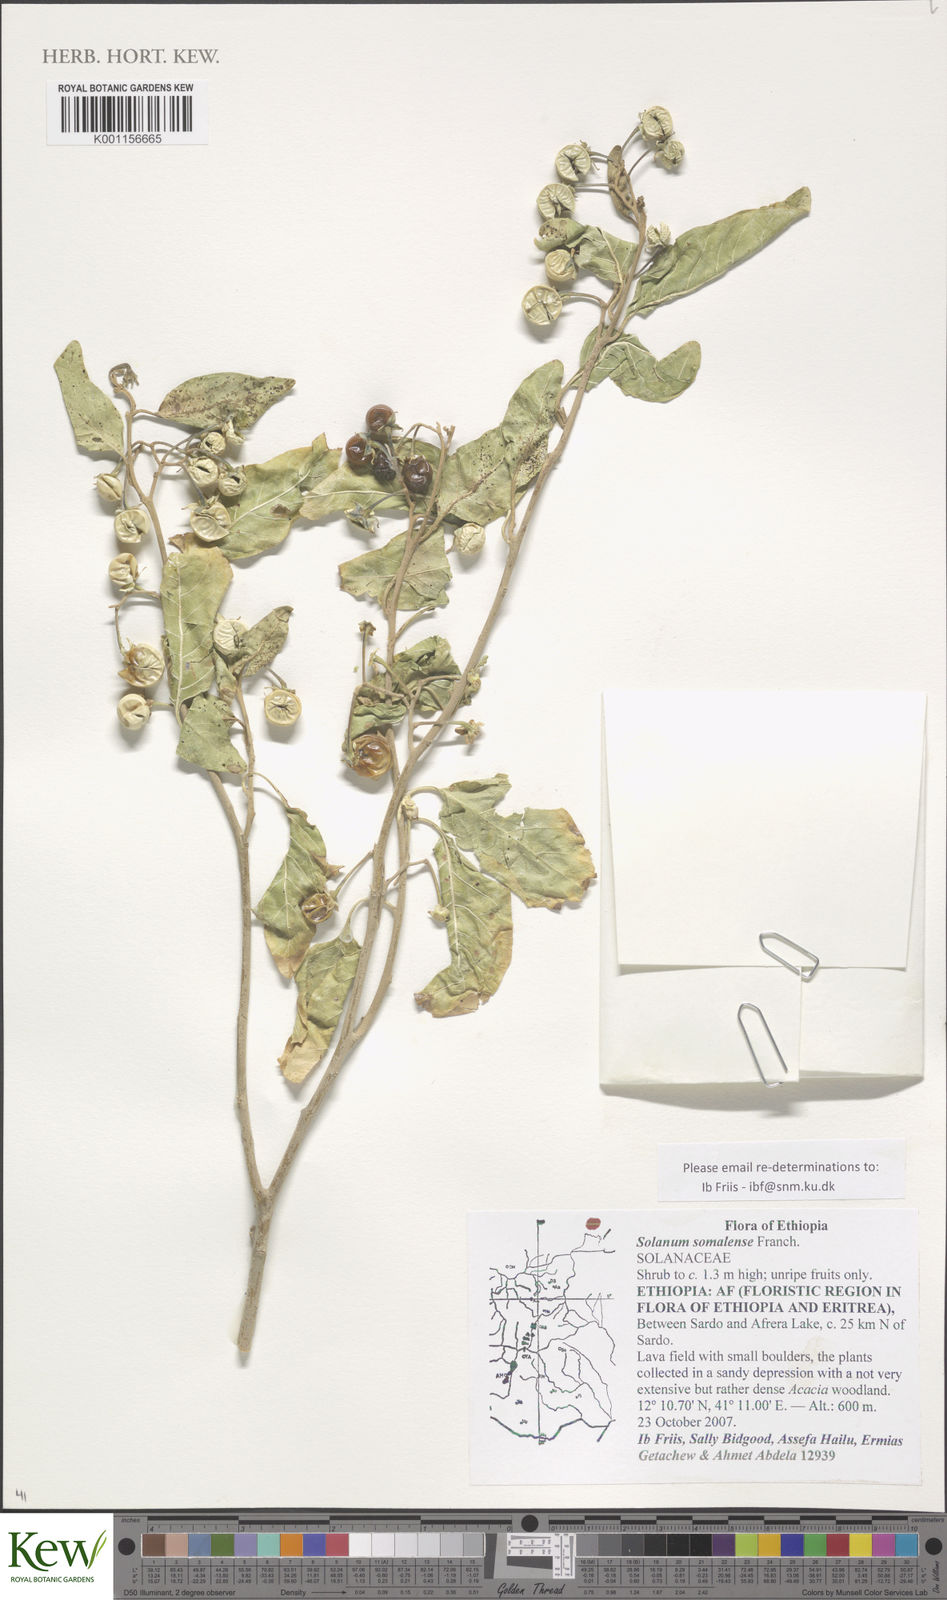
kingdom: Plantae
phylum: Tracheophyta
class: Magnoliopsida
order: Solanales
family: Solanaceae
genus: Solanum
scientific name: Solanum somalense
